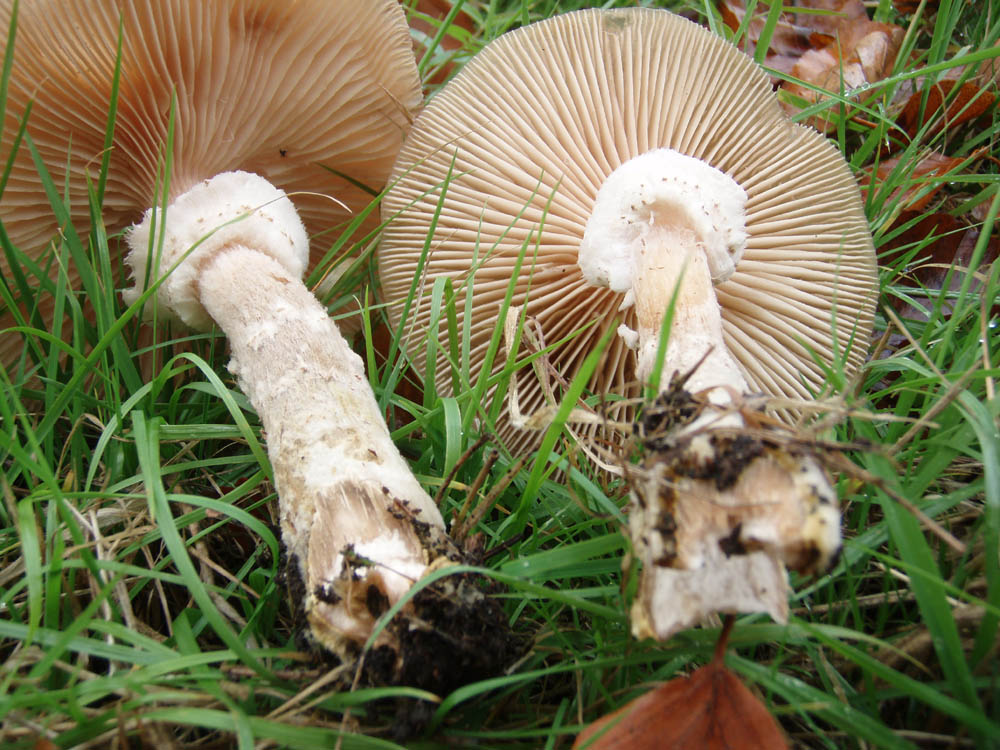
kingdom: Fungi
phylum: Basidiomycota
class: Agaricomycetes
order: Agaricales
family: Physalacriaceae
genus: Armillaria
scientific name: Armillaria ostoyae
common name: mørk honningsvamp
